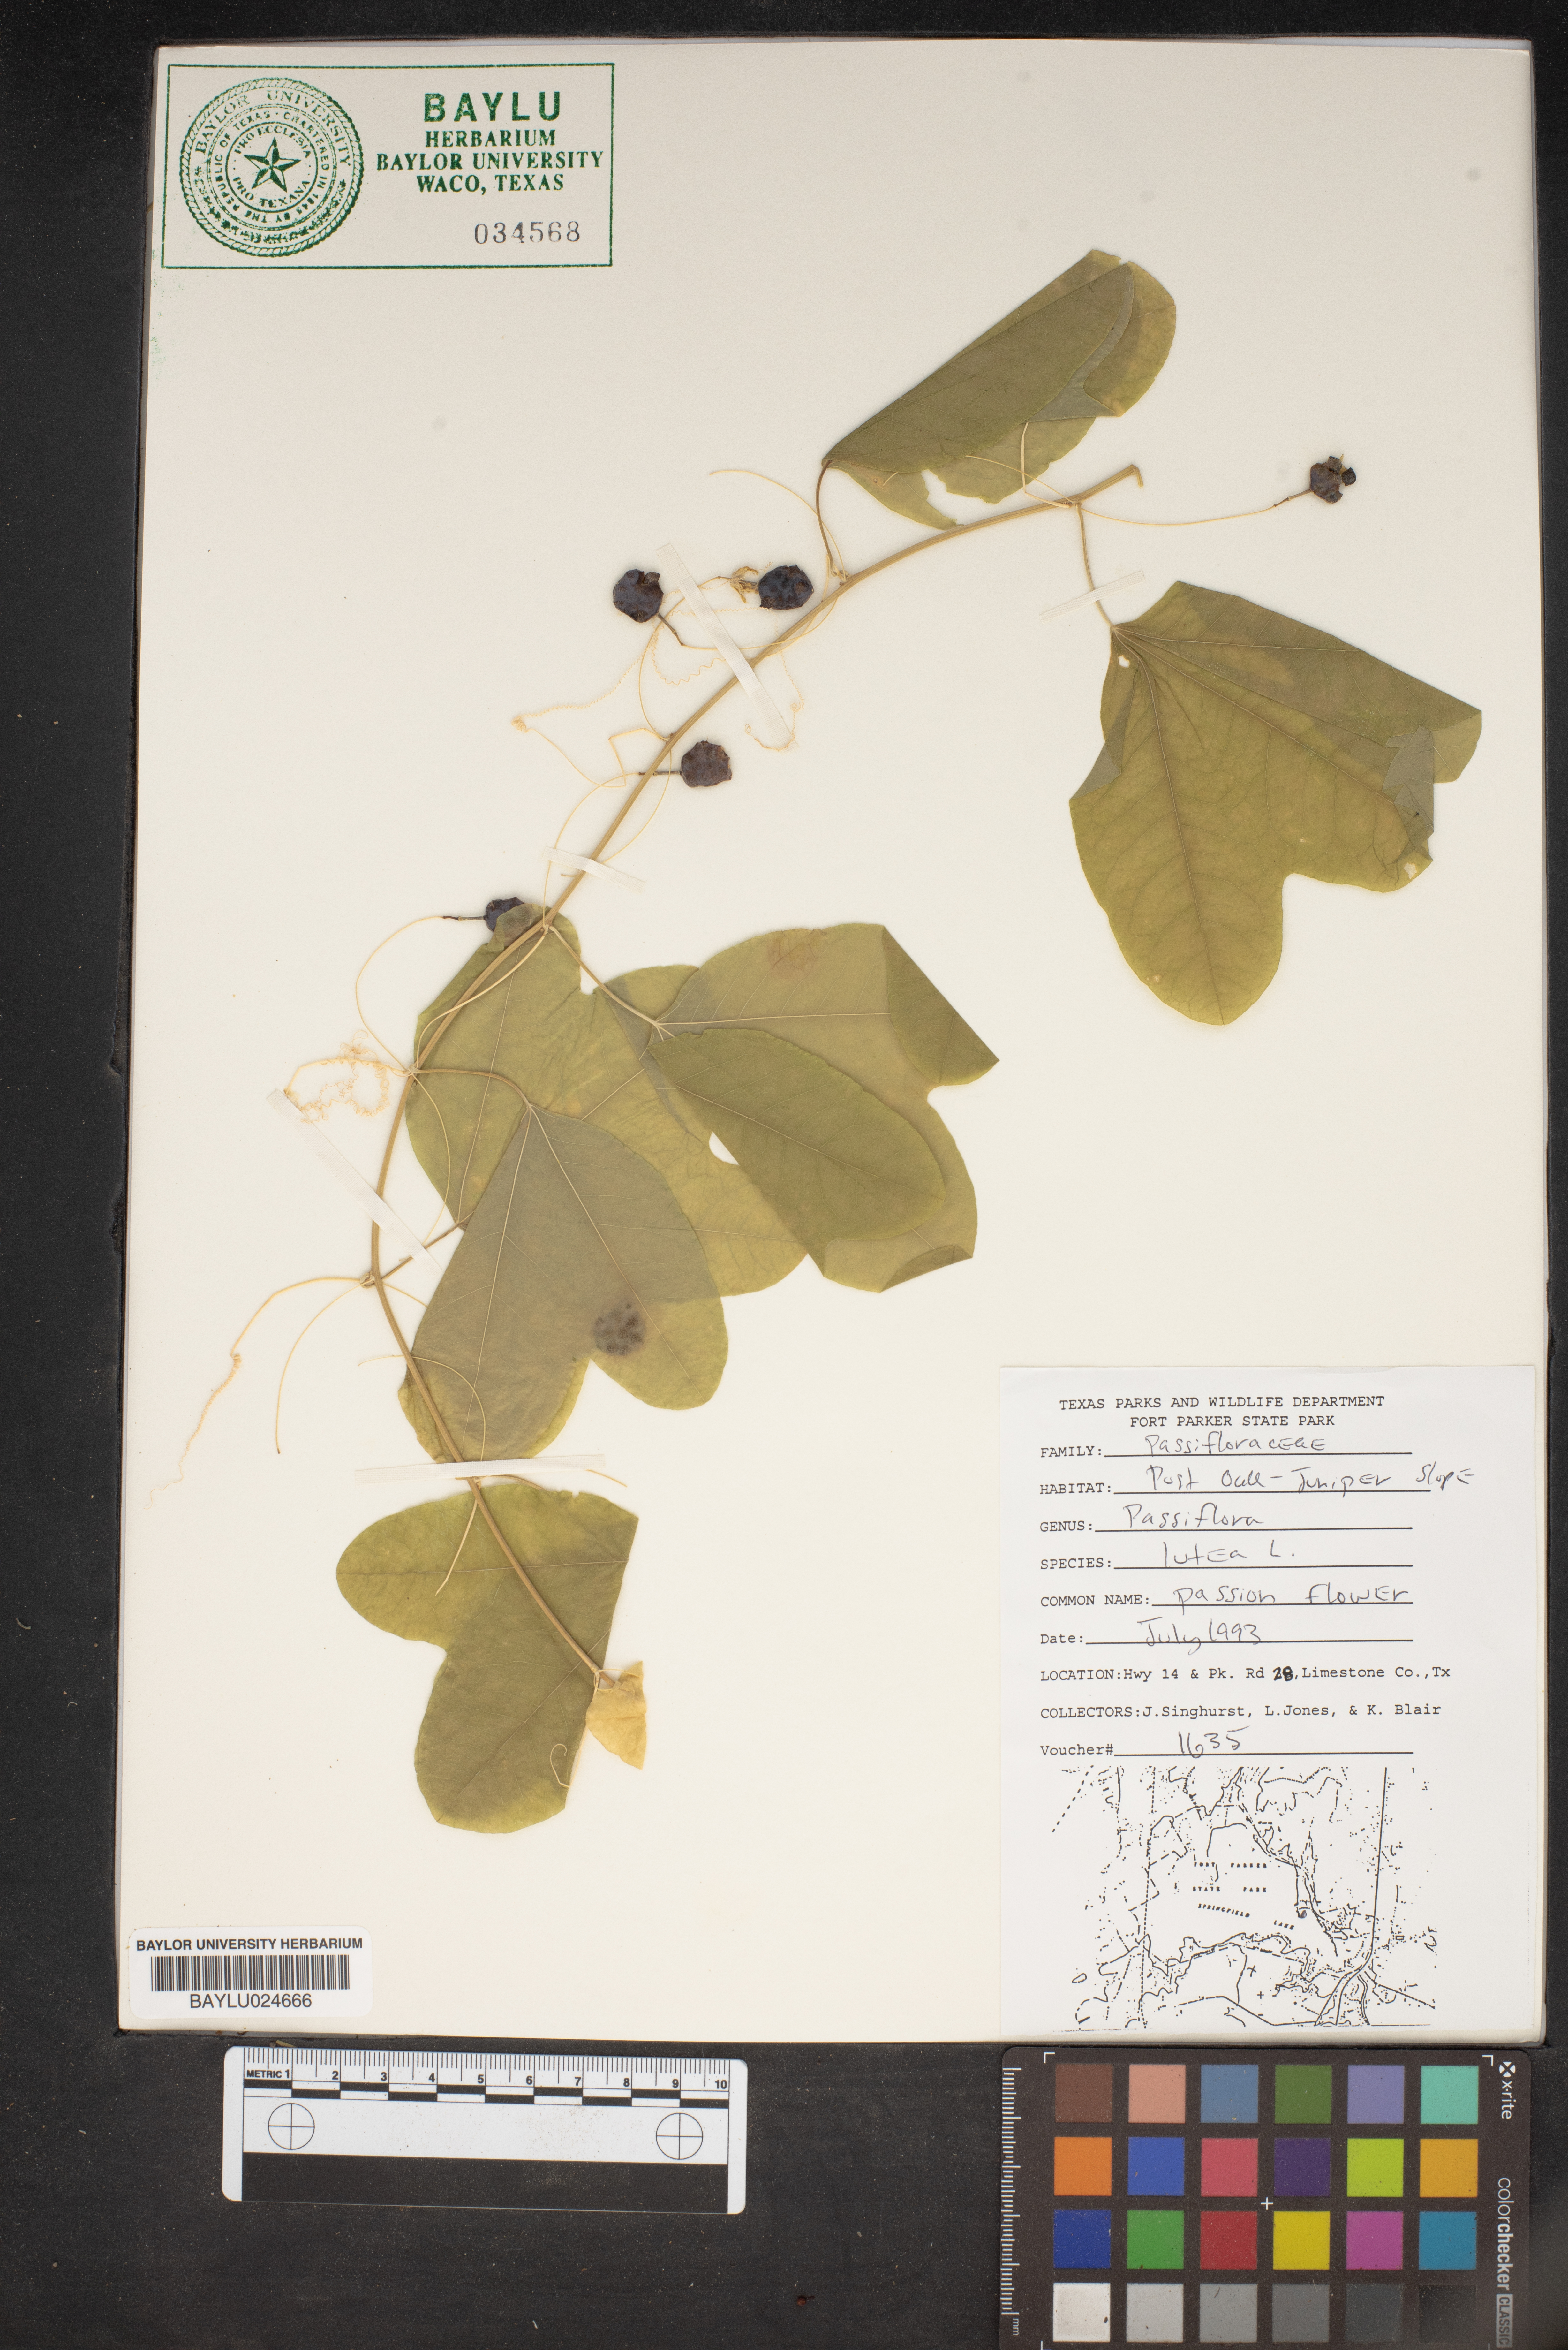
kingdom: Plantae
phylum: Tracheophyta
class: Magnoliopsida
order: Malpighiales
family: Passifloraceae
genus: Passiflora
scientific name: Passiflora lutea
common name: Yellow passionflower
